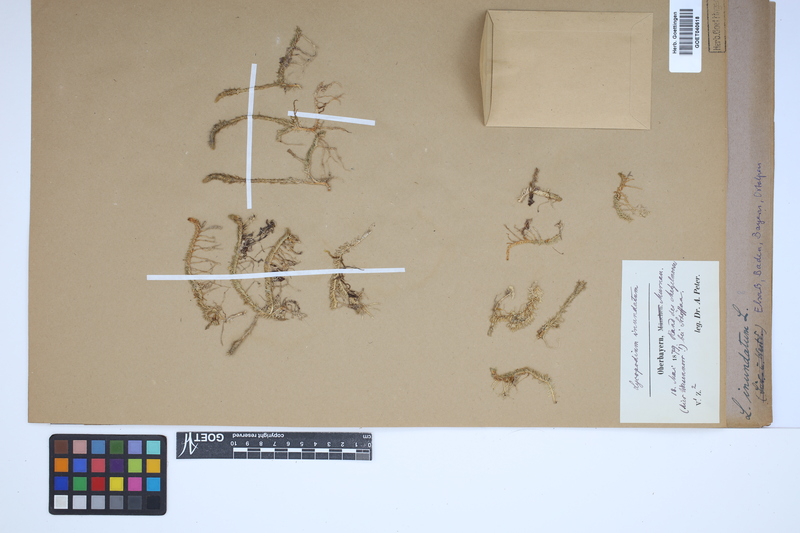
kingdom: Plantae
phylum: Tracheophyta
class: Lycopodiopsida
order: Lycopodiales
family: Lycopodiaceae
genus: Lycopodiella
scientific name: Lycopodiella inundata
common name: Marsh clubmoss
